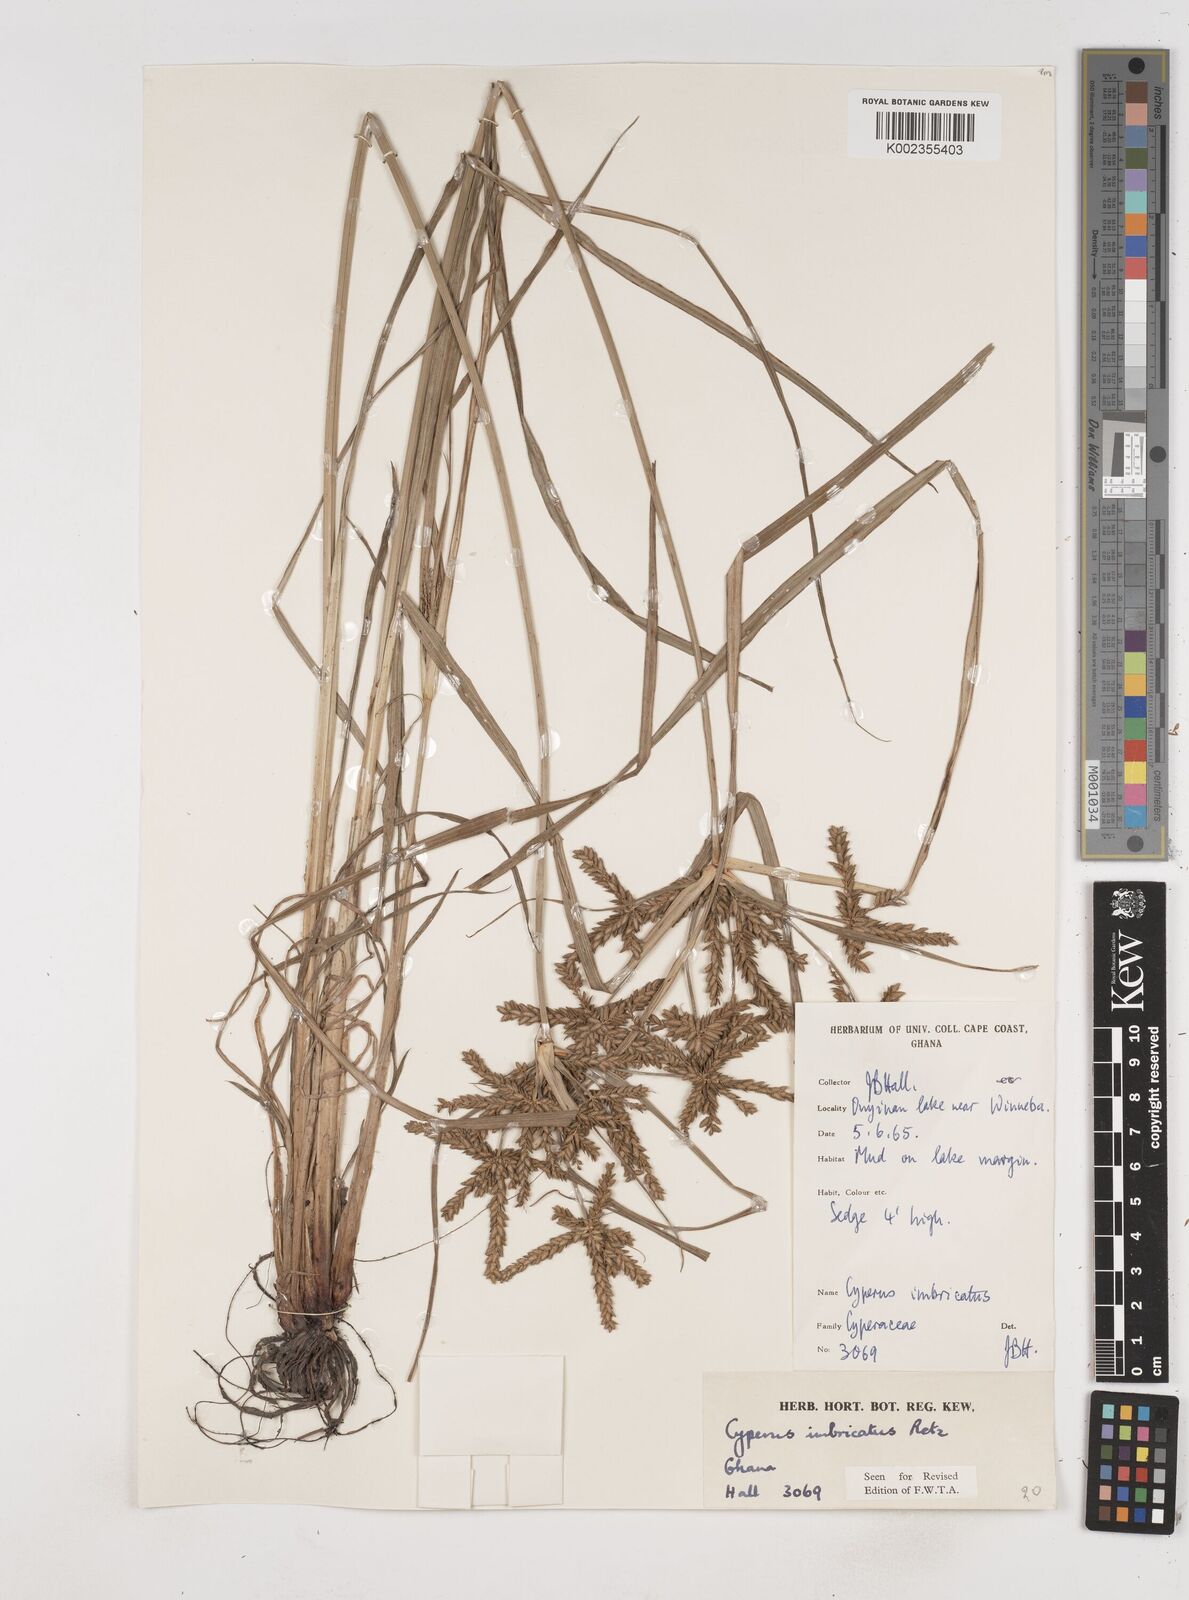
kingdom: Plantae
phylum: Tracheophyta
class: Liliopsida
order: Poales
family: Cyperaceae
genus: Cyperus
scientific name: Cyperus imbricatus
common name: Shingle flatsedge
